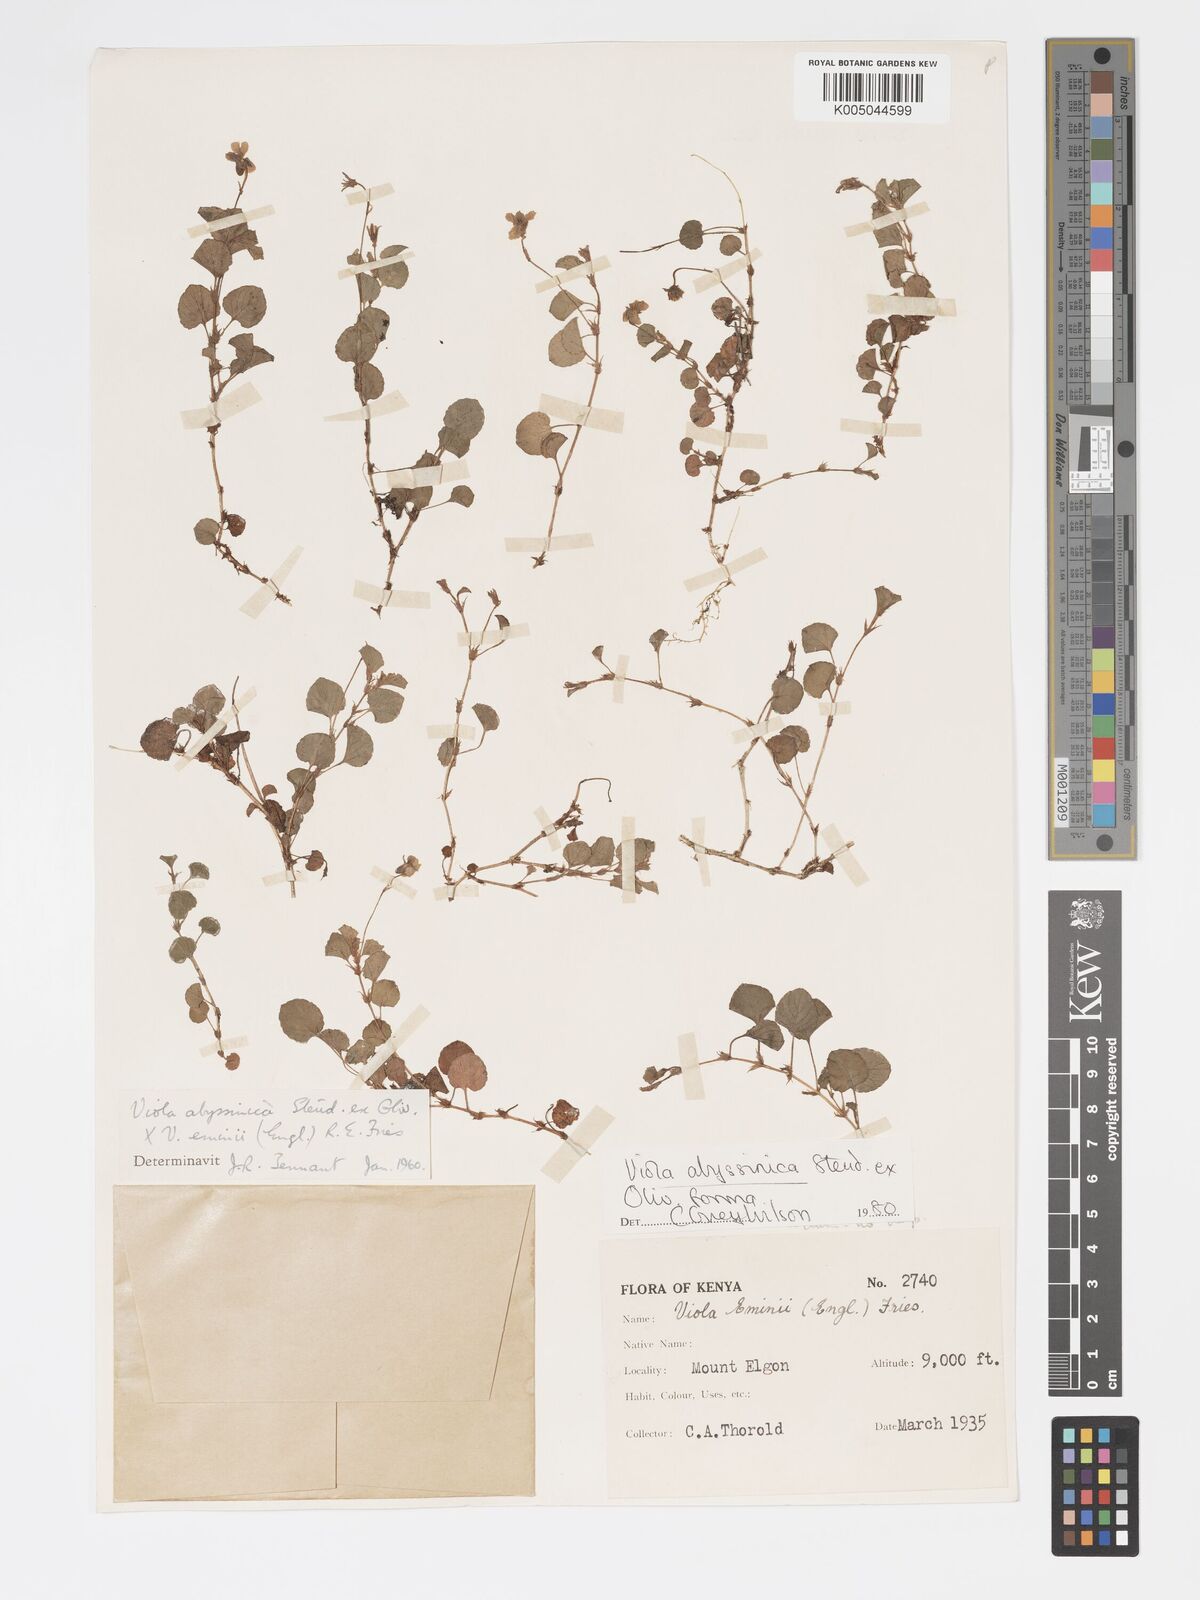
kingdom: Plantae
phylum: Tracheophyta
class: Magnoliopsida
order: Malpighiales
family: Violaceae
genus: Viola
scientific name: Viola abyssinica
